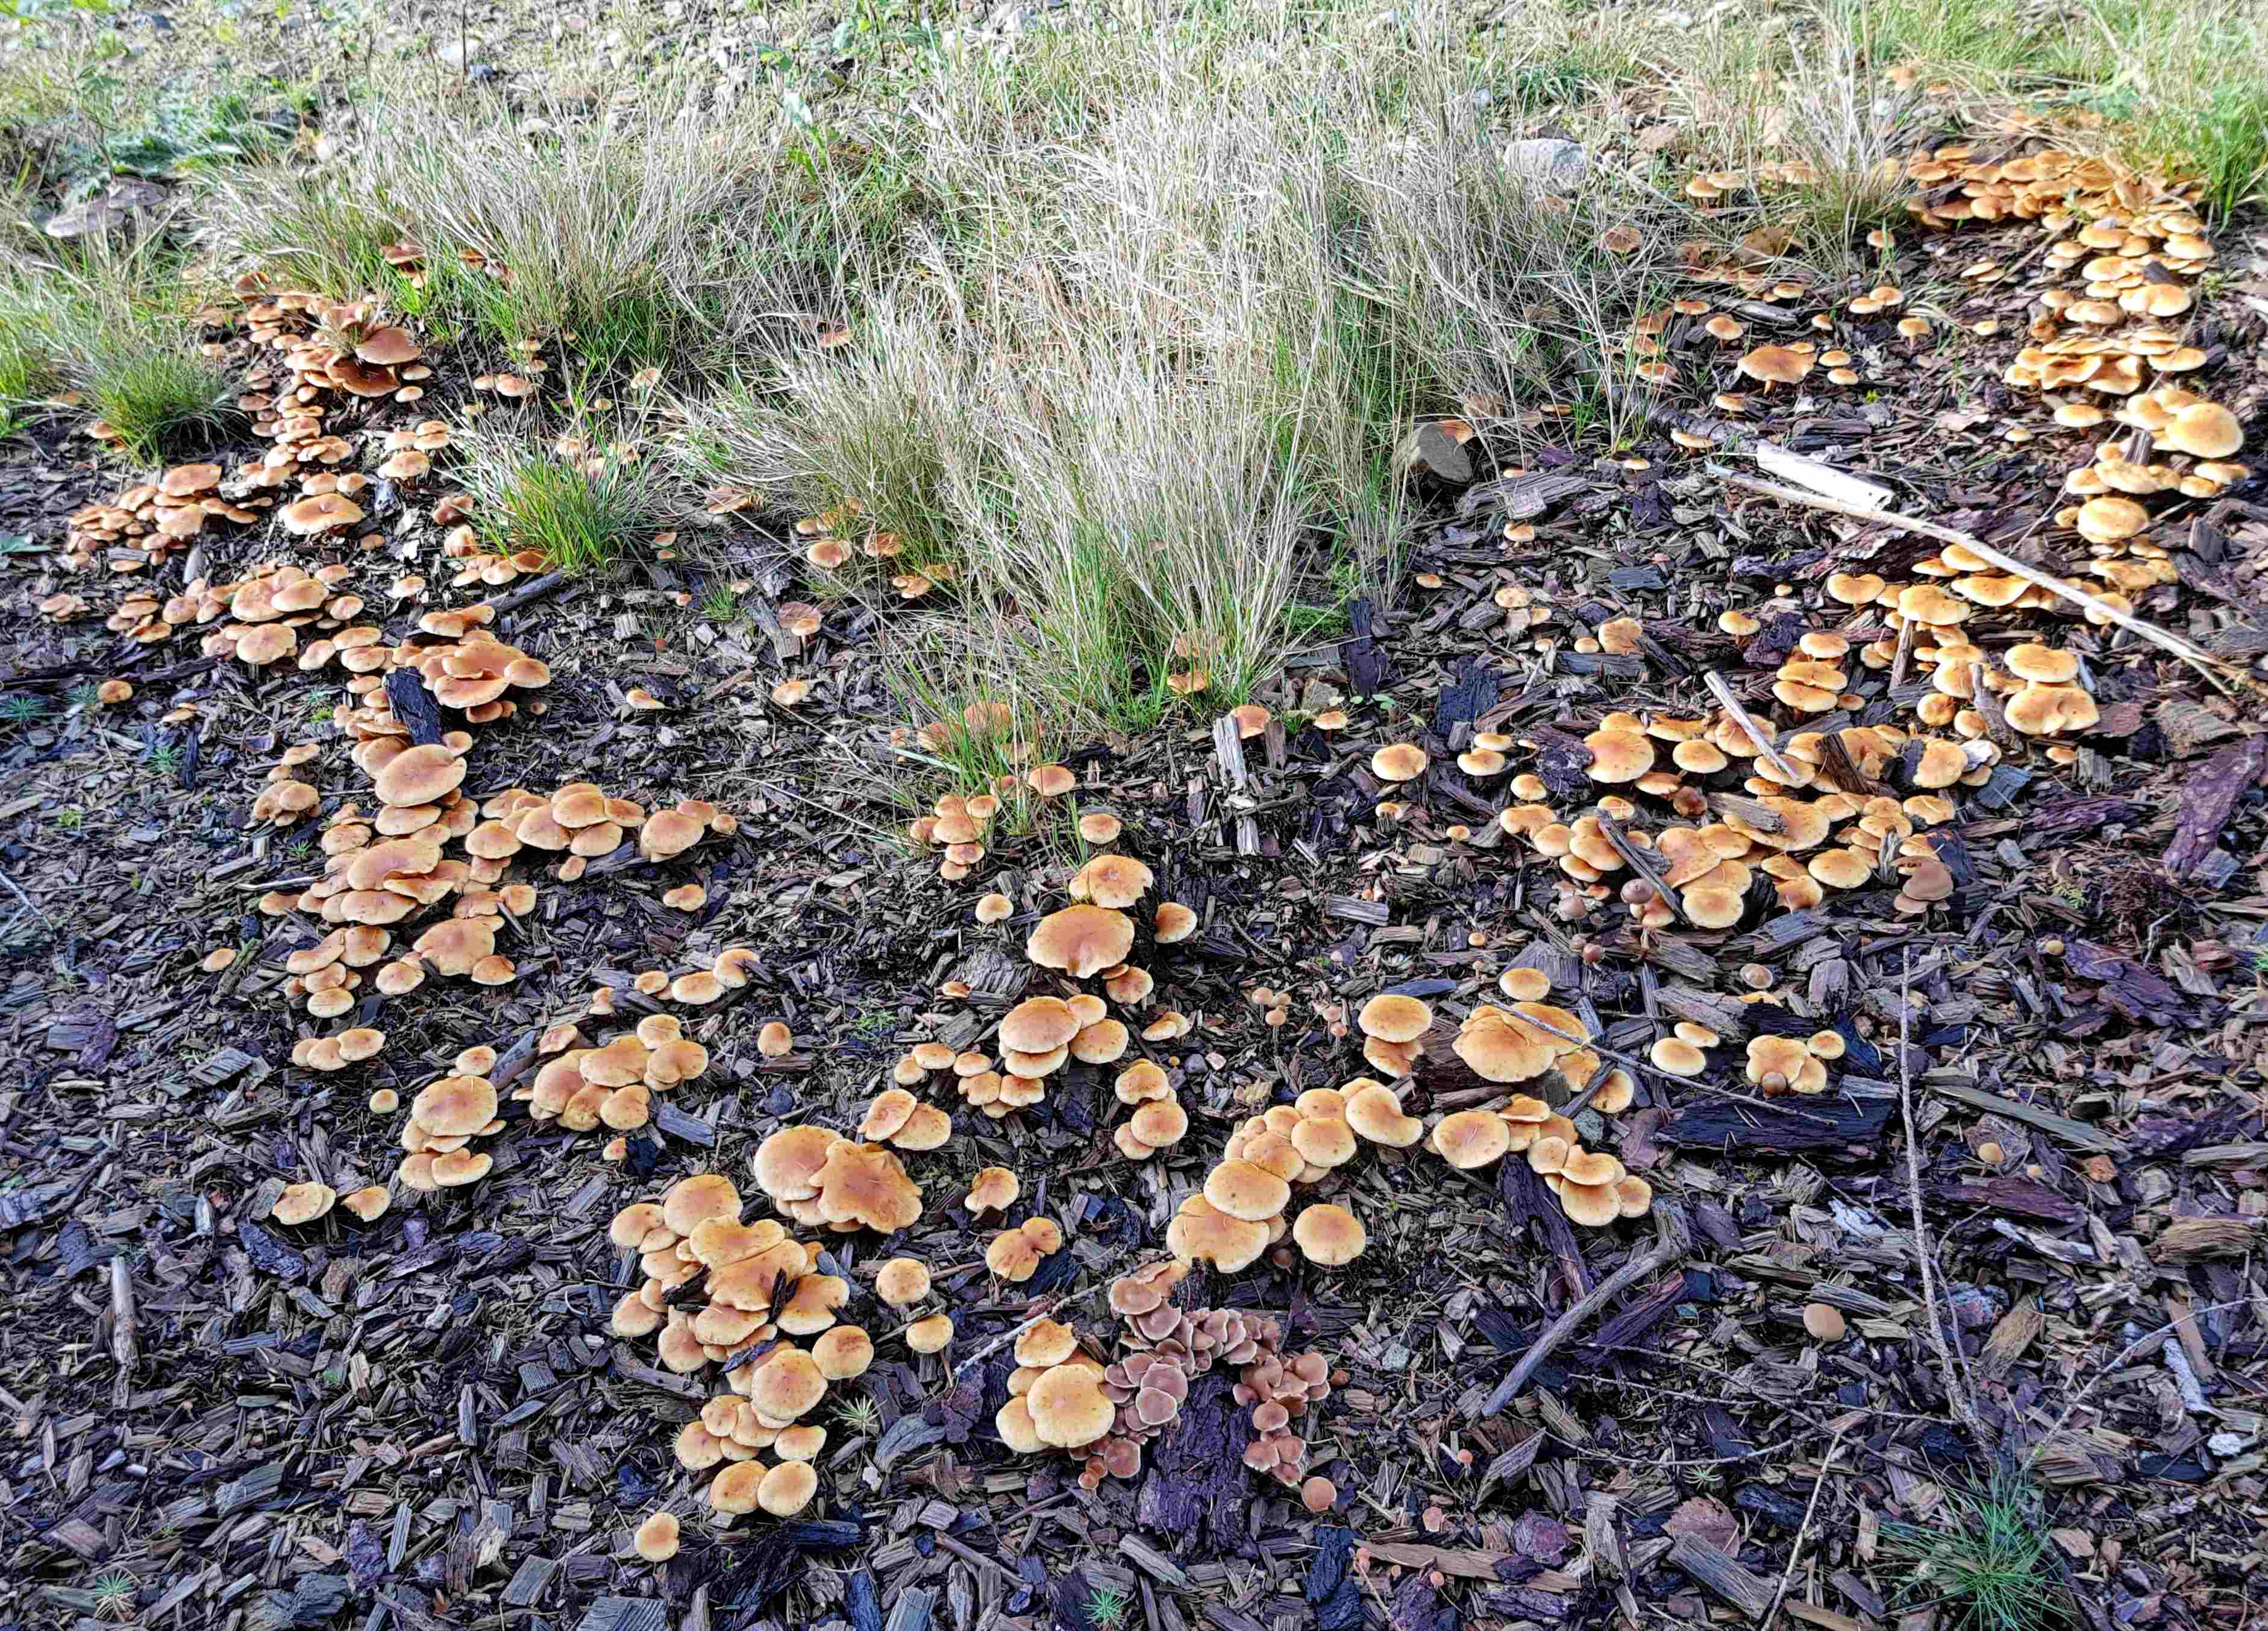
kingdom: Fungi
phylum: Basidiomycota
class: Agaricomycetes
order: Agaricales
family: Hymenogastraceae
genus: Gymnopilus
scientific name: Gymnopilus penetrans
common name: plettet flammehat
